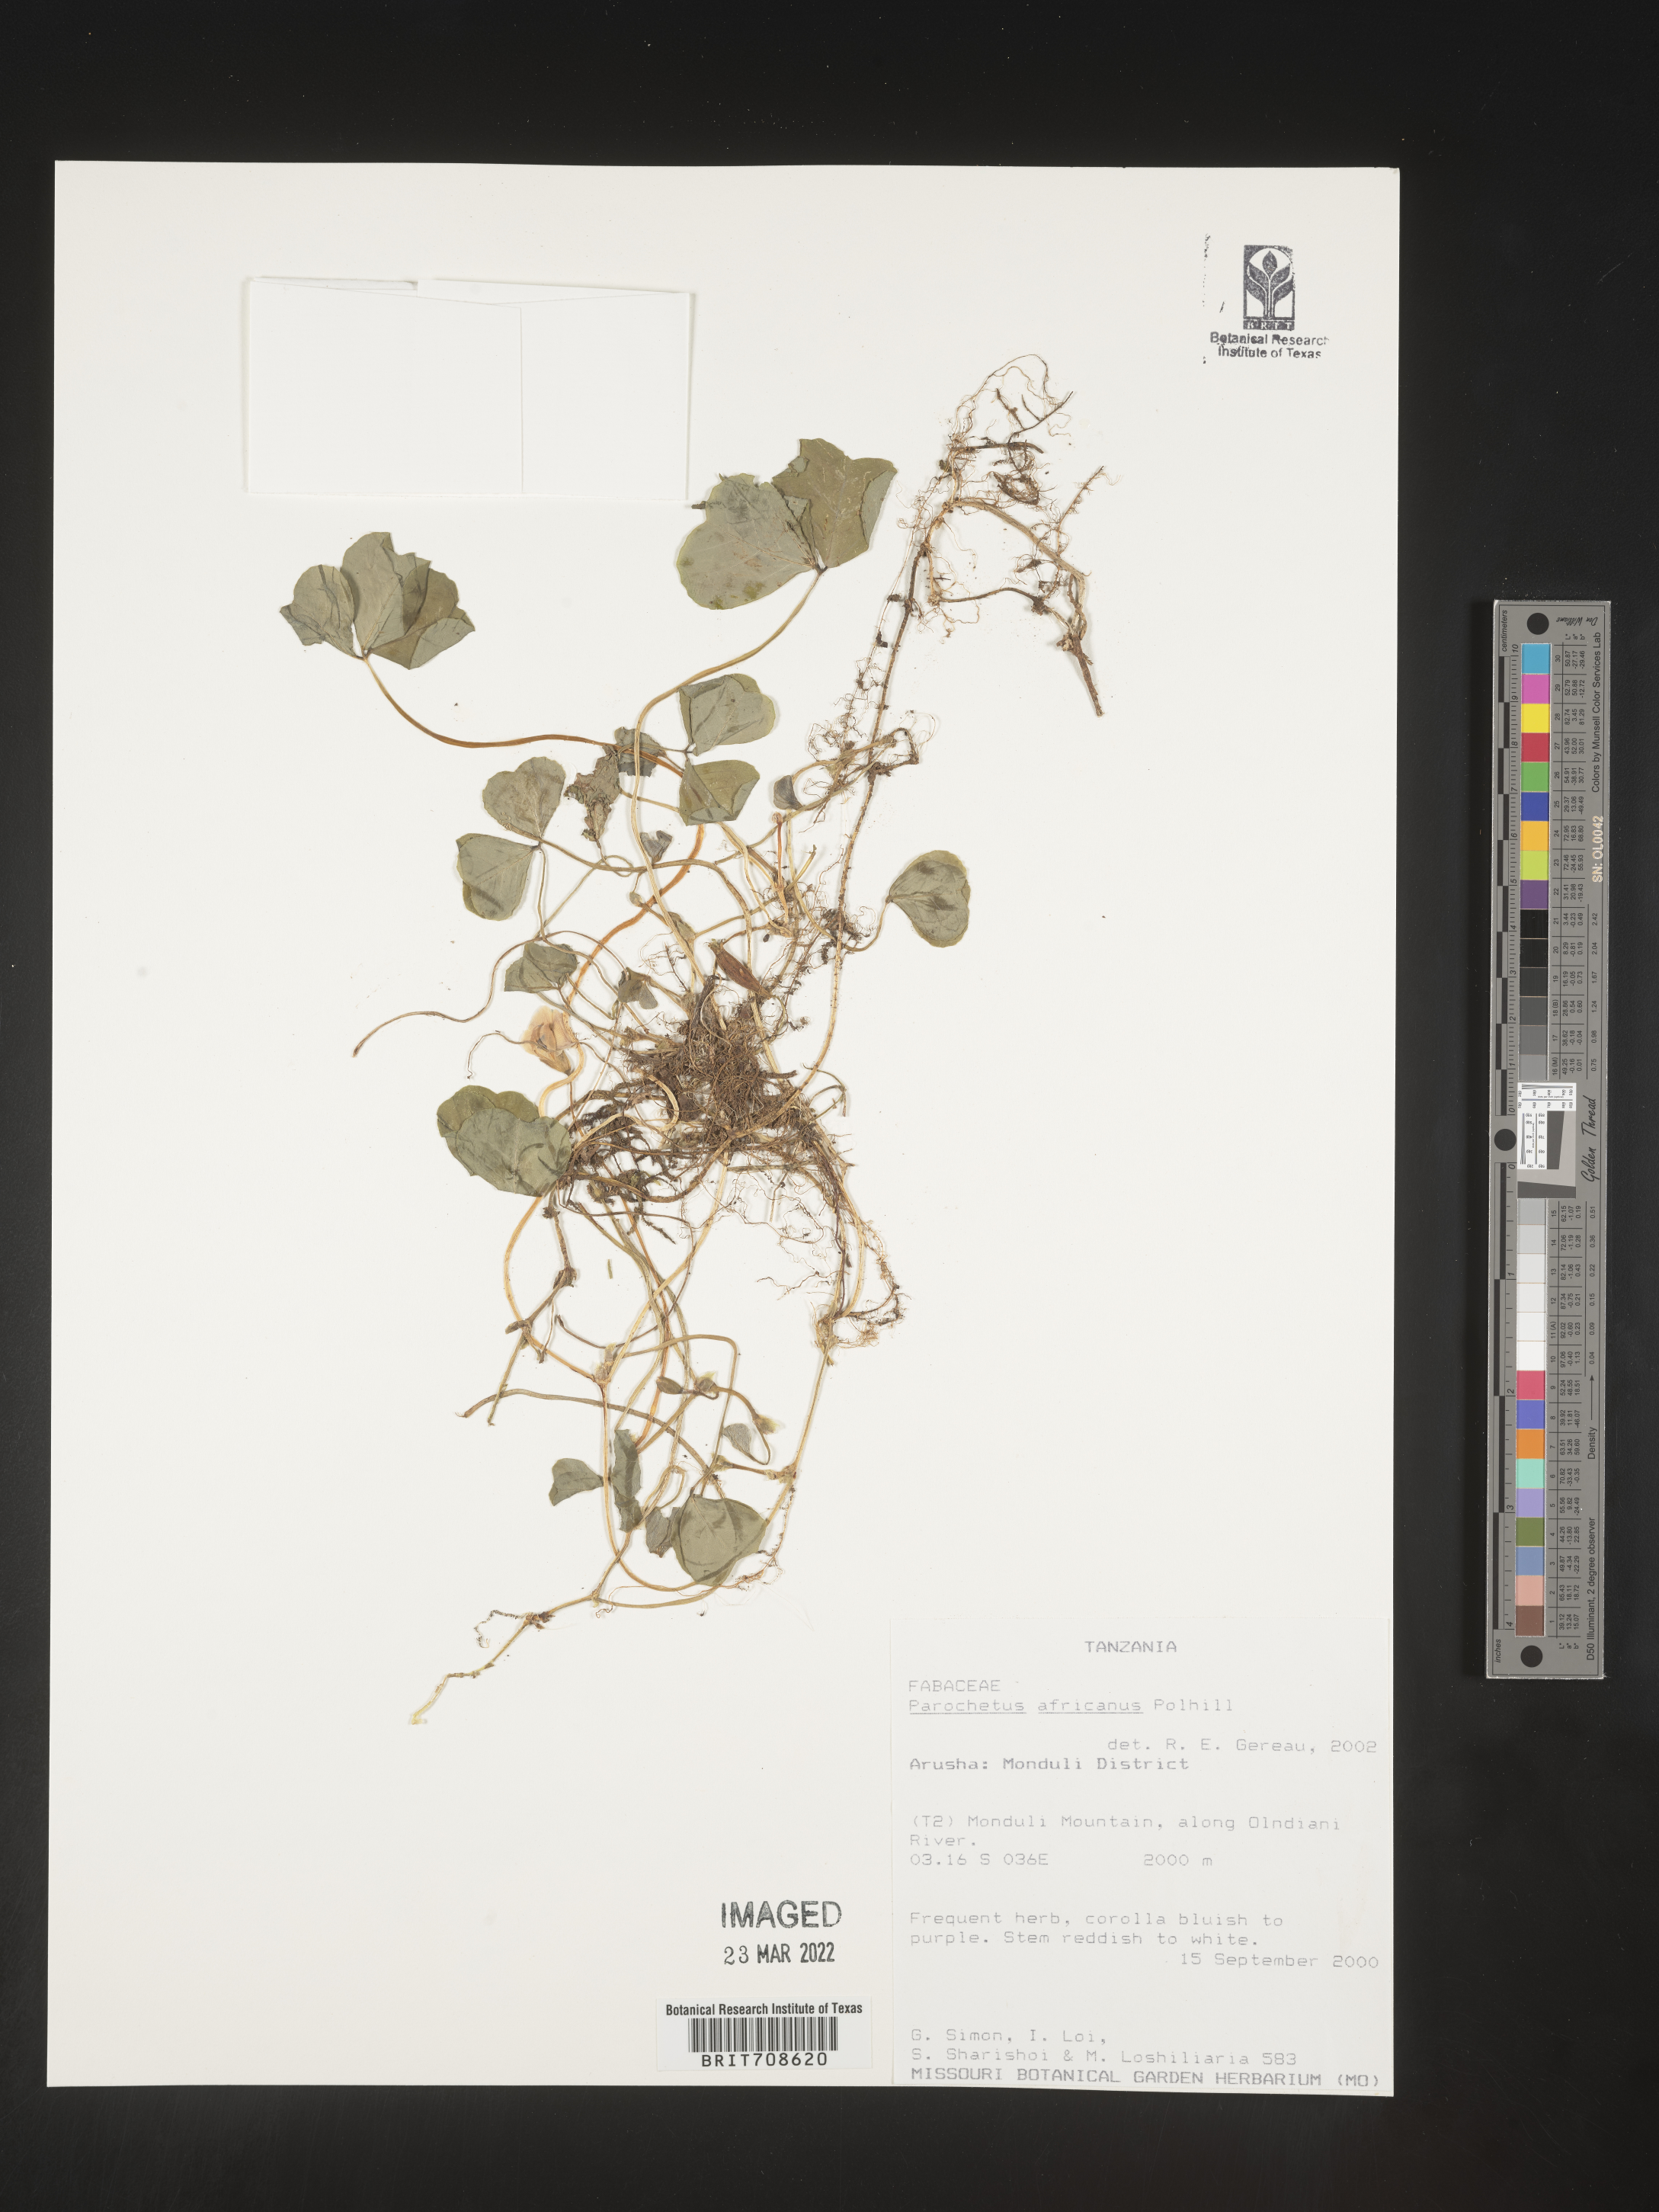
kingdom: Plantae
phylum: Tracheophyta
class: Magnoliopsida
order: Fabales
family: Fabaceae
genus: Parochetus
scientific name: Parochetus
